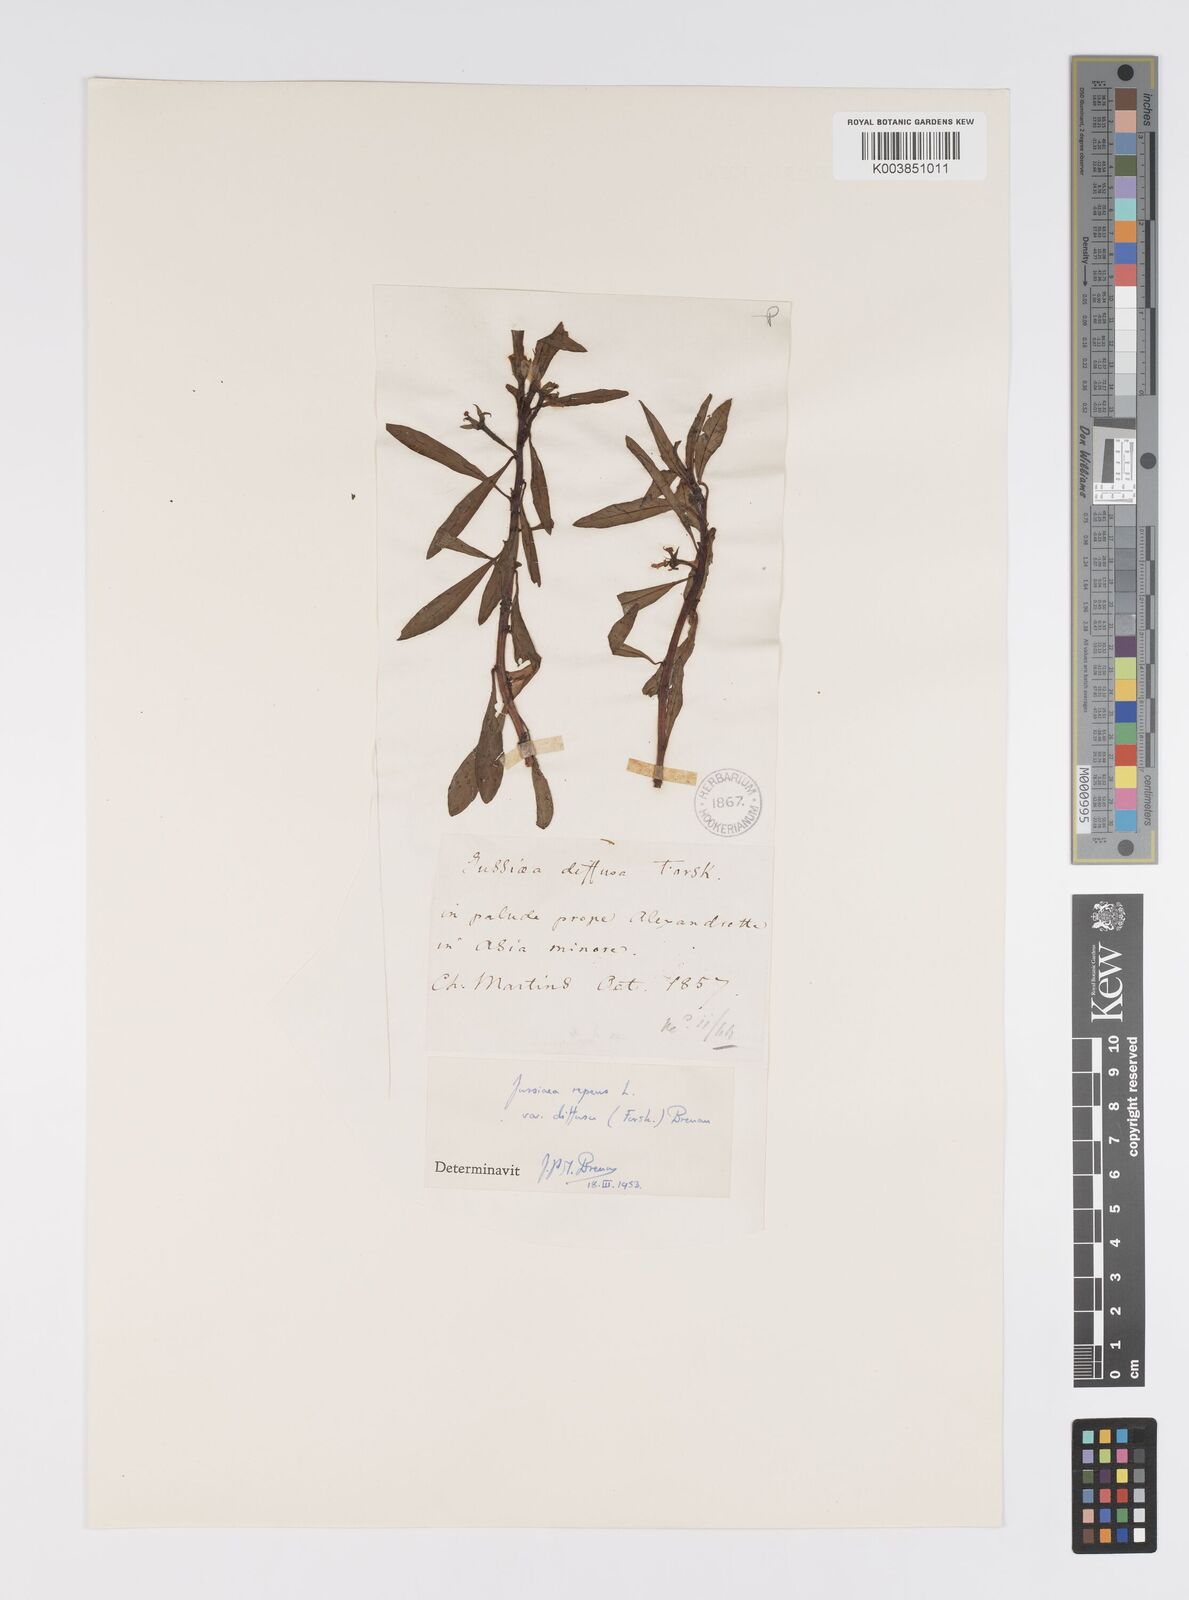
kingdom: Plantae
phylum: Tracheophyta
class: Magnoliopsida
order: Myrtales
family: Onagraceae
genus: Ludwigia
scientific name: Ludwigia adscendens
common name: Creeping water primrose
